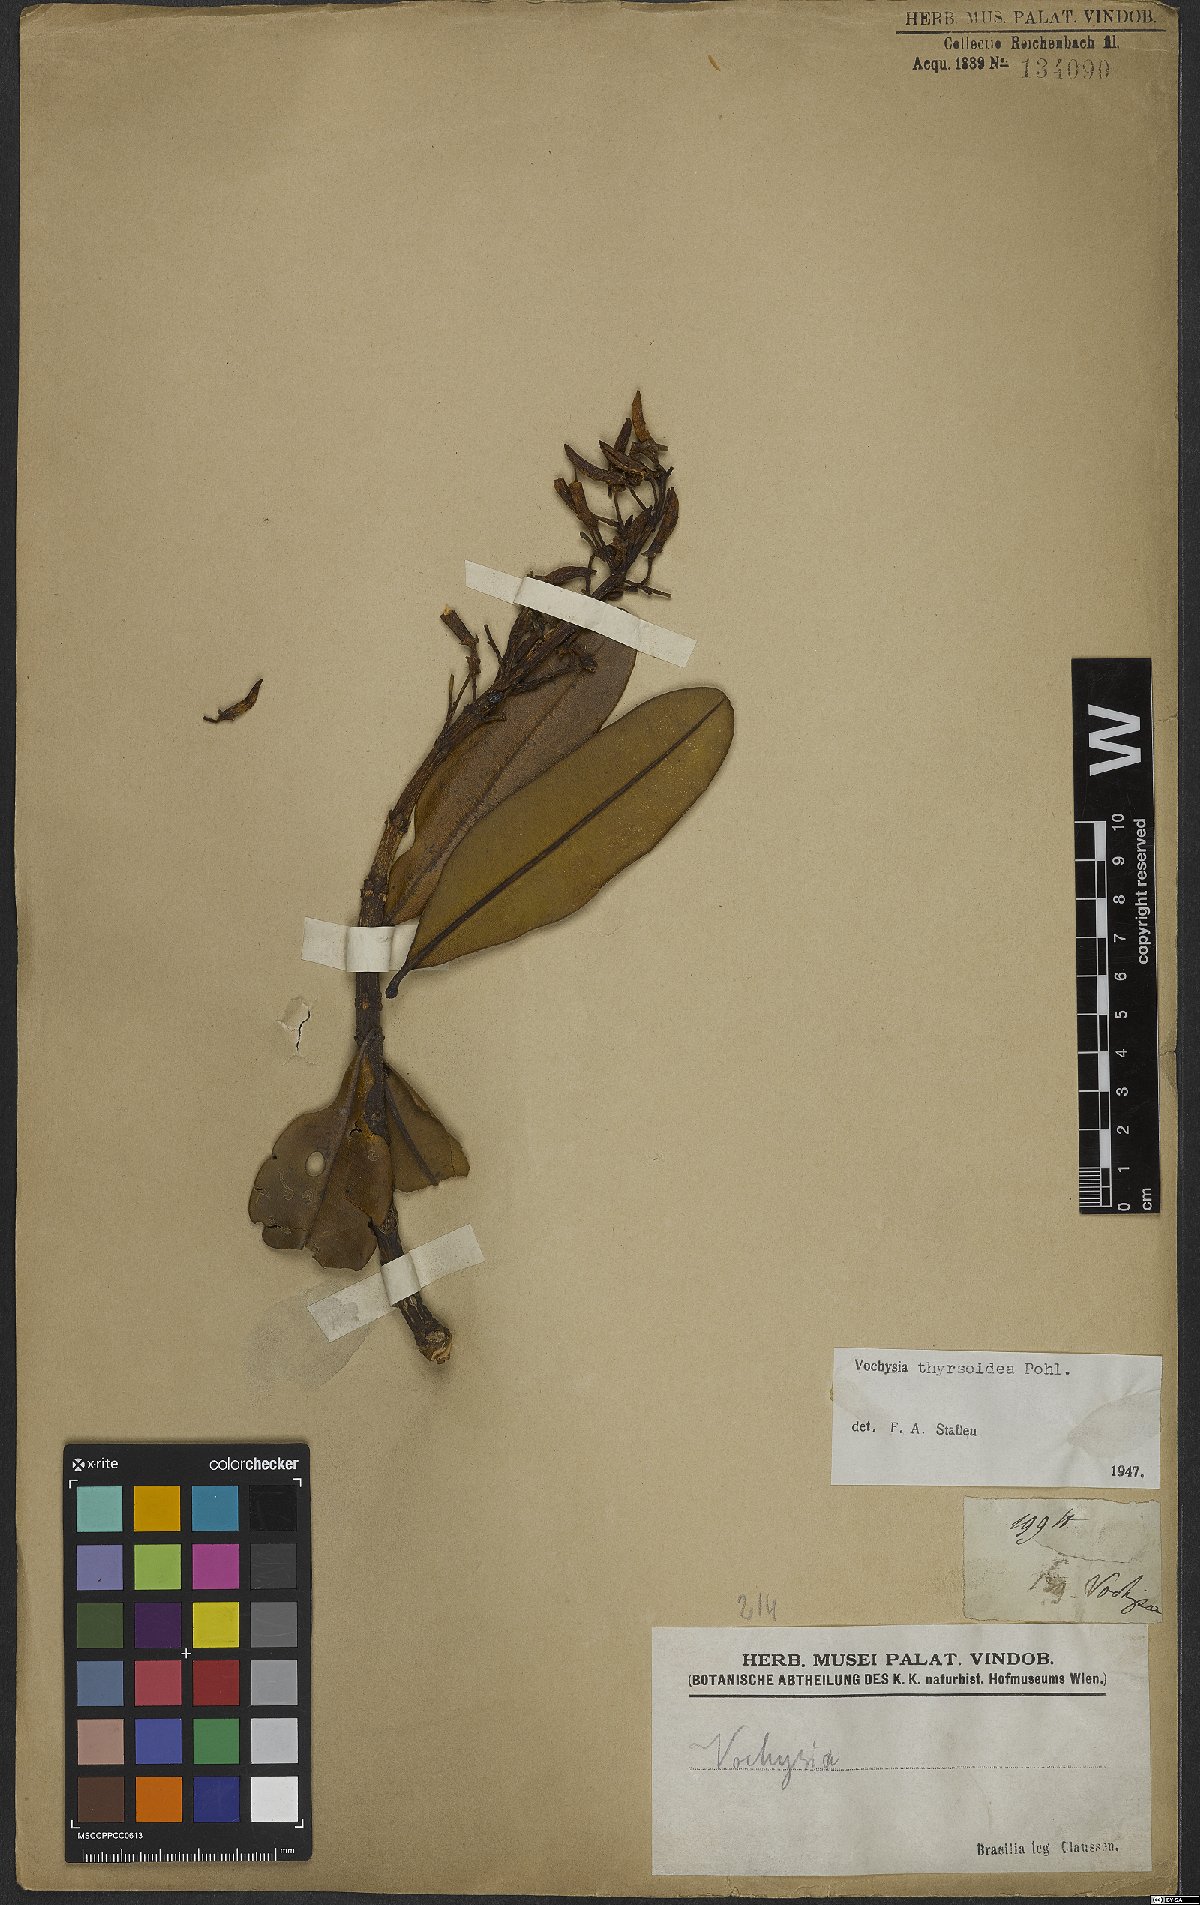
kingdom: Plantae
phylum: Tracheophyta
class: Magnoliopsida
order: Myrtales
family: Vochysiaceae
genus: Vochysia
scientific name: Vochysia thyrsoidea
